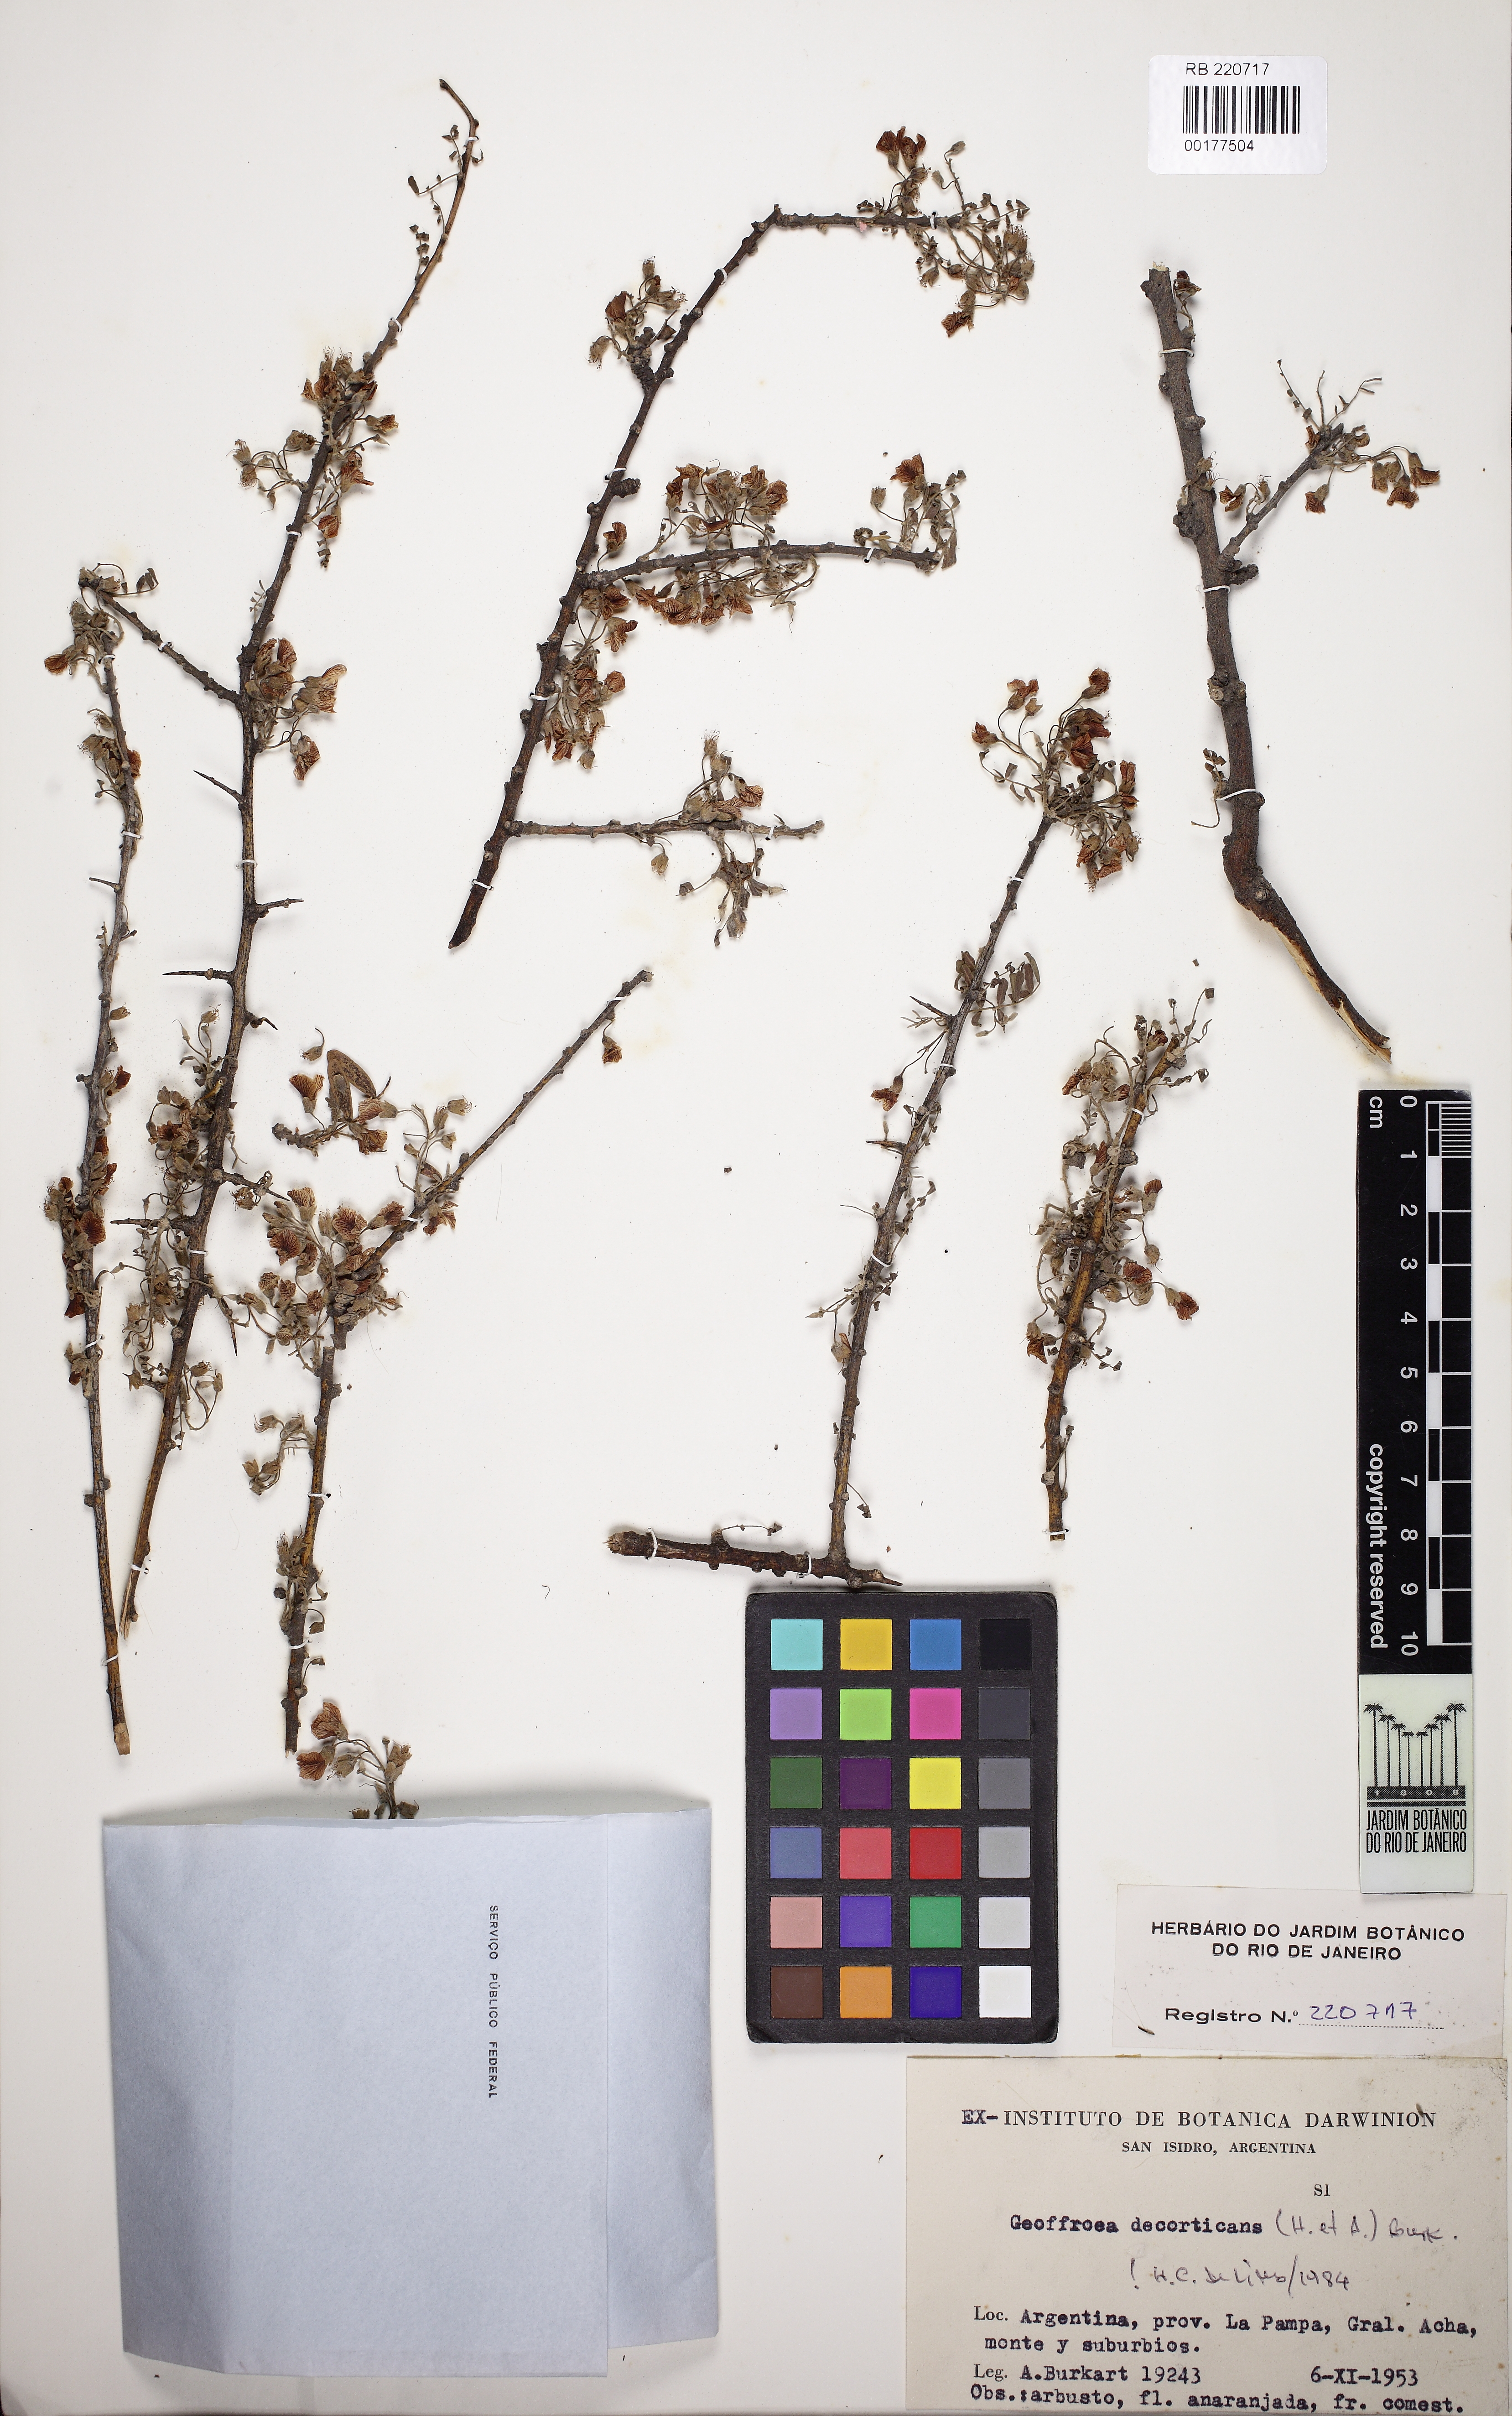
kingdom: Plantae
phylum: Tracheophyta
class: Magnoliopsida
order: Fabales
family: Fabaceae
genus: Geoffroea
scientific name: Geoffroea decorticans
